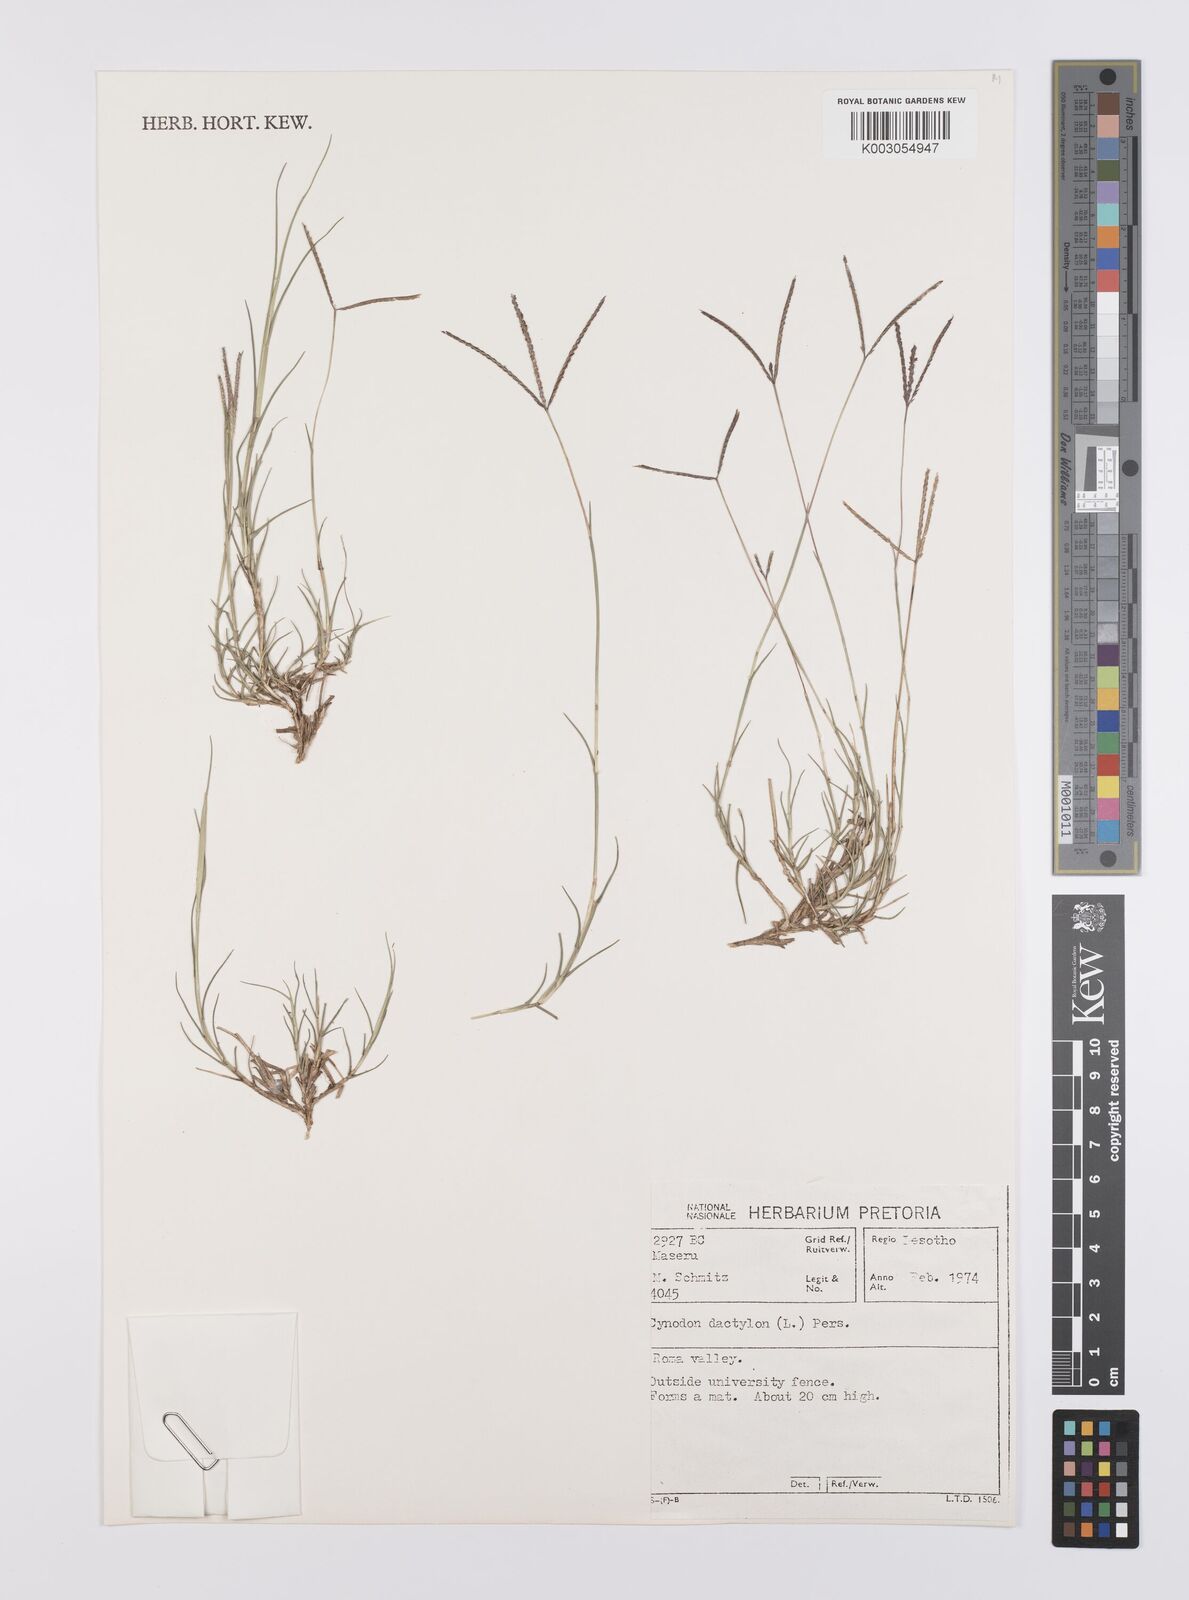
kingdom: Plantae
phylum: Tracheophyta
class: Liliopsida
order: Poales
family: Poaceae
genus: Cynodon
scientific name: Cynodon dactylon
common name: Bermuda grass
